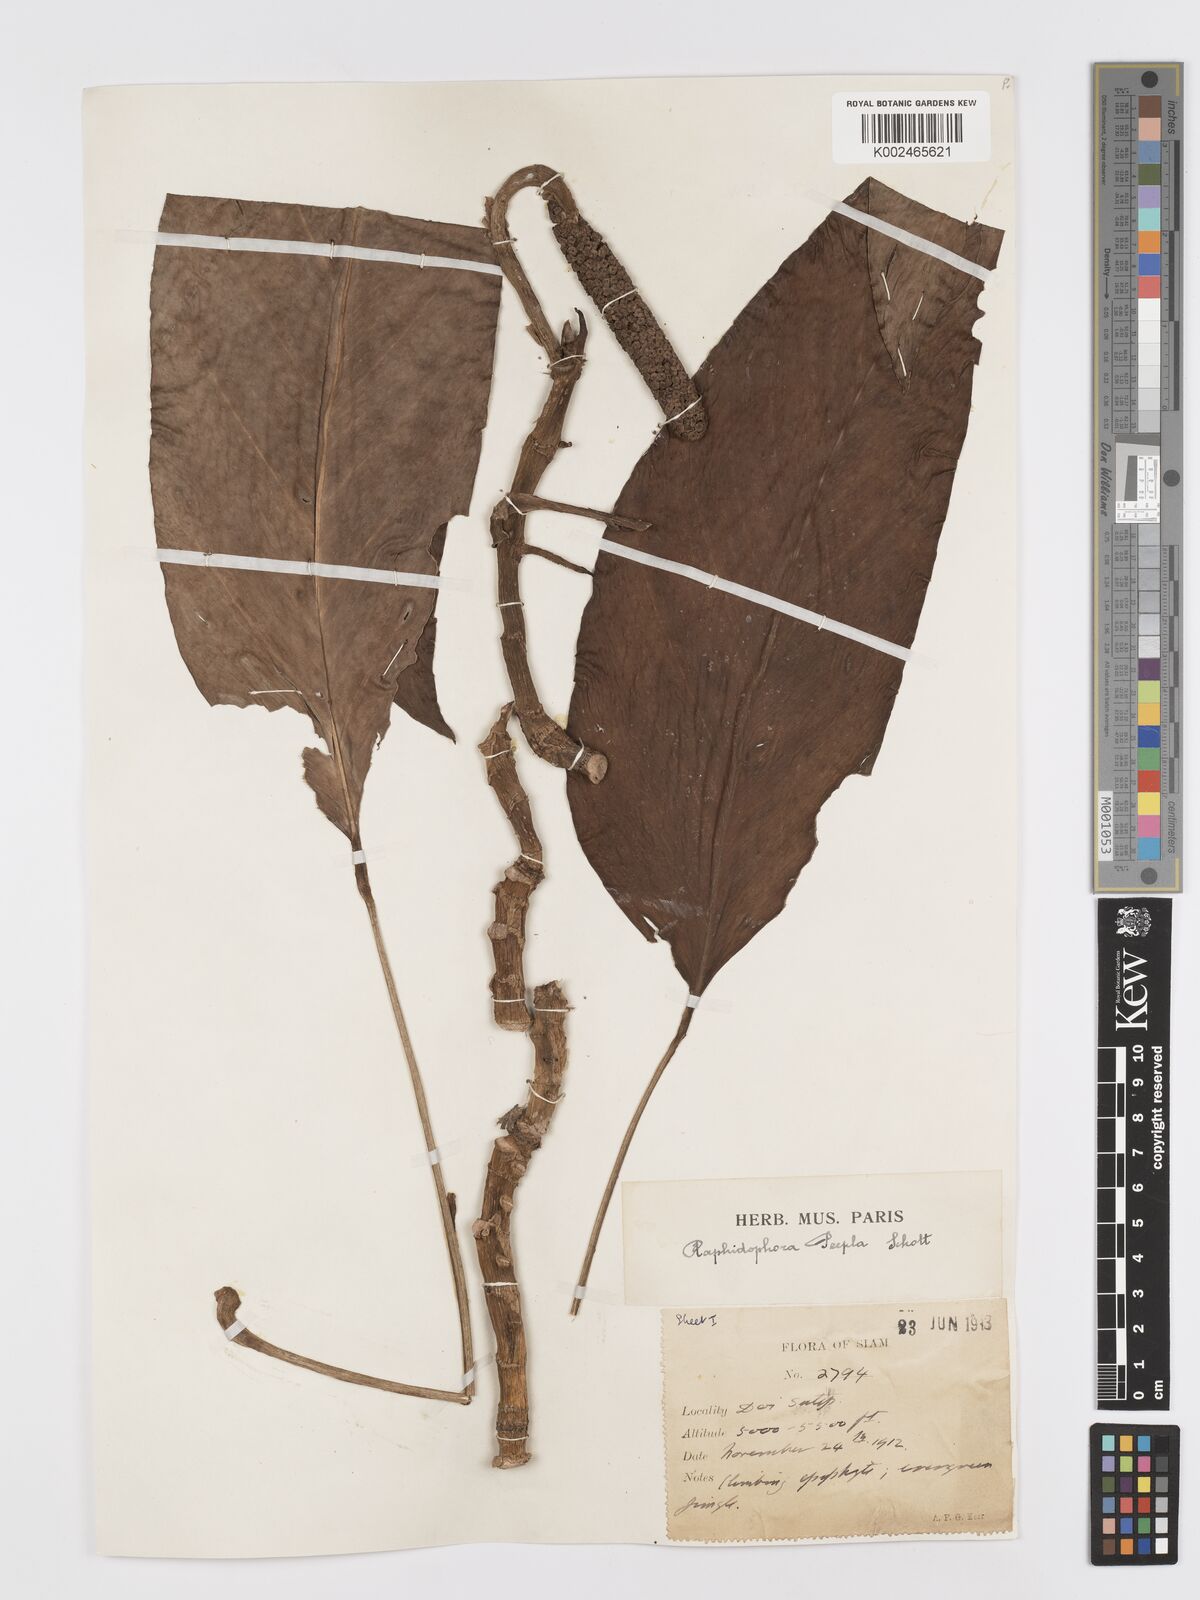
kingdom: Plantae
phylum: Tracheophyta
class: Liliopsida
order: Alismatales
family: Araceae
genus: Rhaphidophora
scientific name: Rhaphidophora peepla
